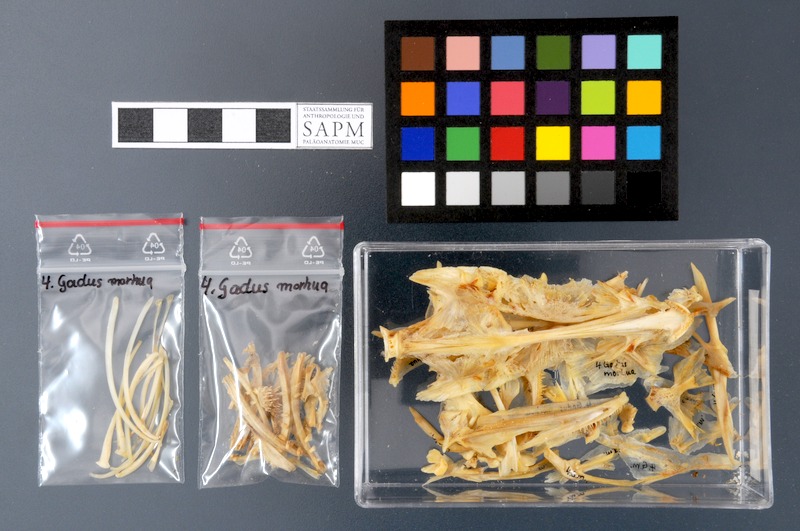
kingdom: Animalia
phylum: Chordata
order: Gadiformes
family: Gadidae
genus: Gadus
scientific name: Gadus morhua
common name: Atlantic cod
